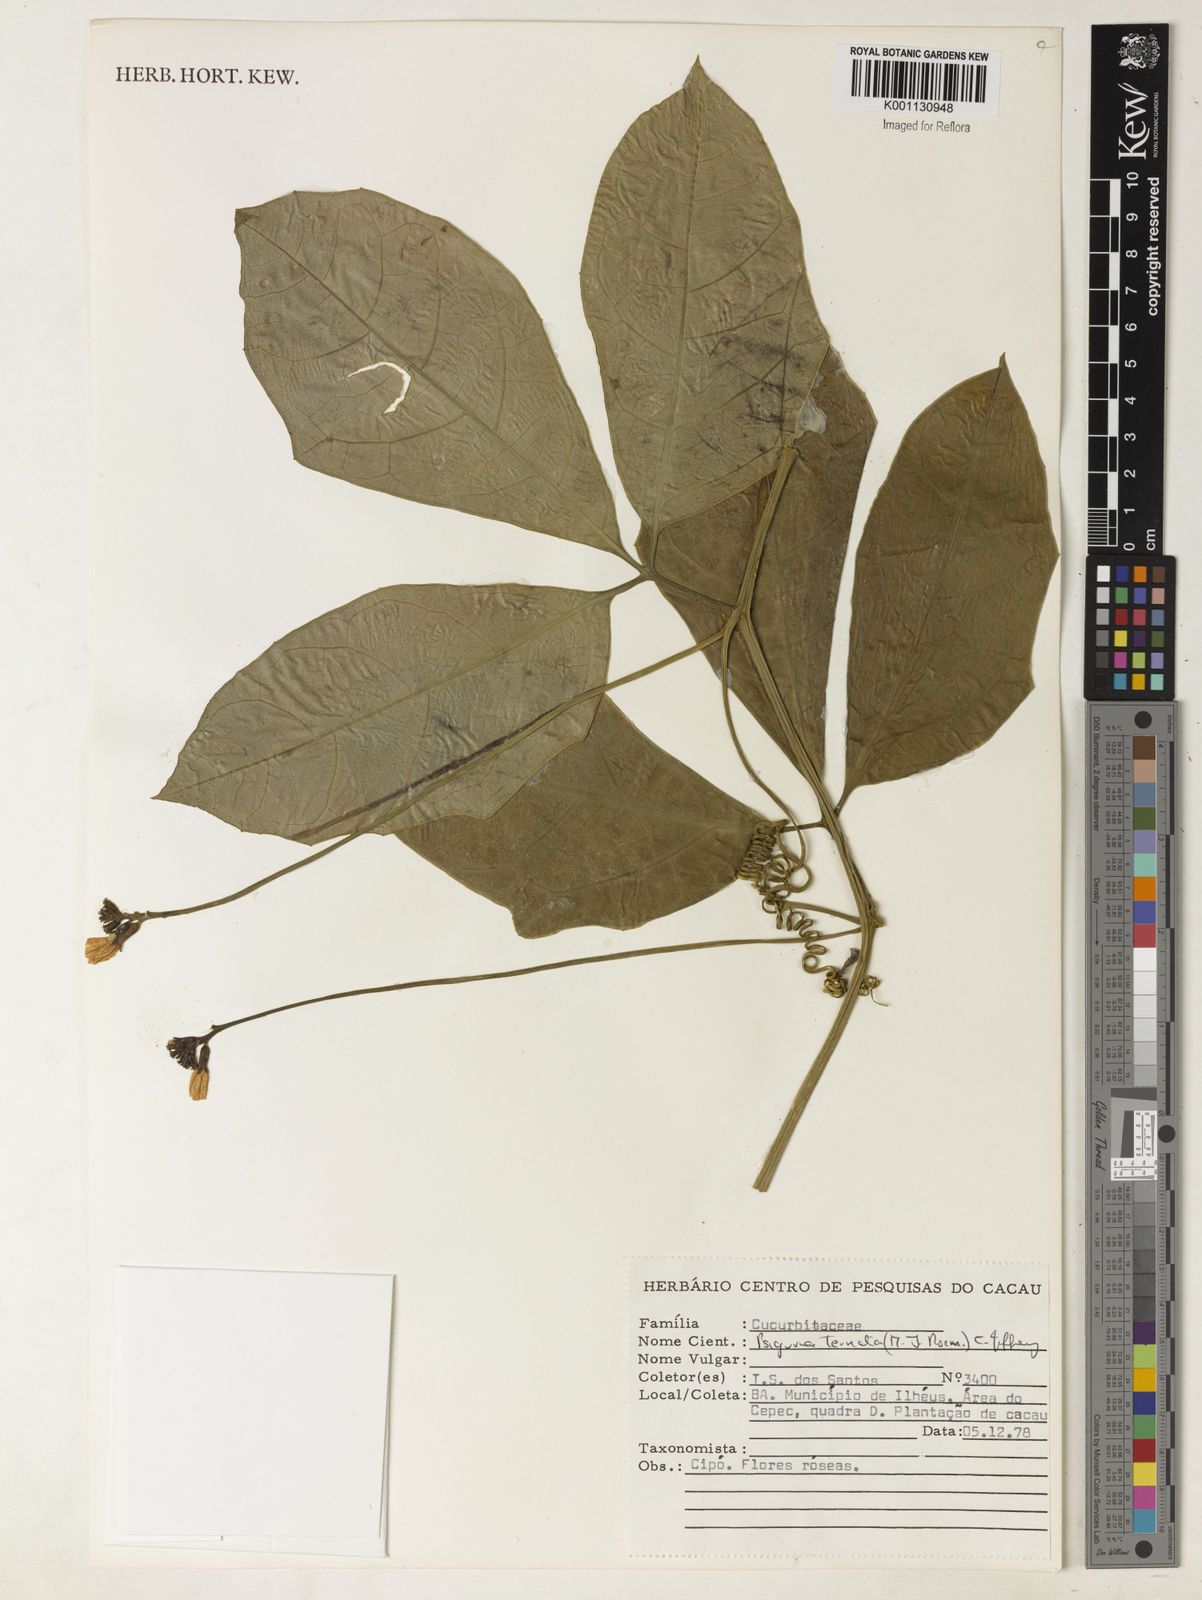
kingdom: Plantae
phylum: Tracheophyta
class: Magnoliopsida
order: Cucurbitales
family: Cucurbitaceae
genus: Psiguria
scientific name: Psiguria ternata
